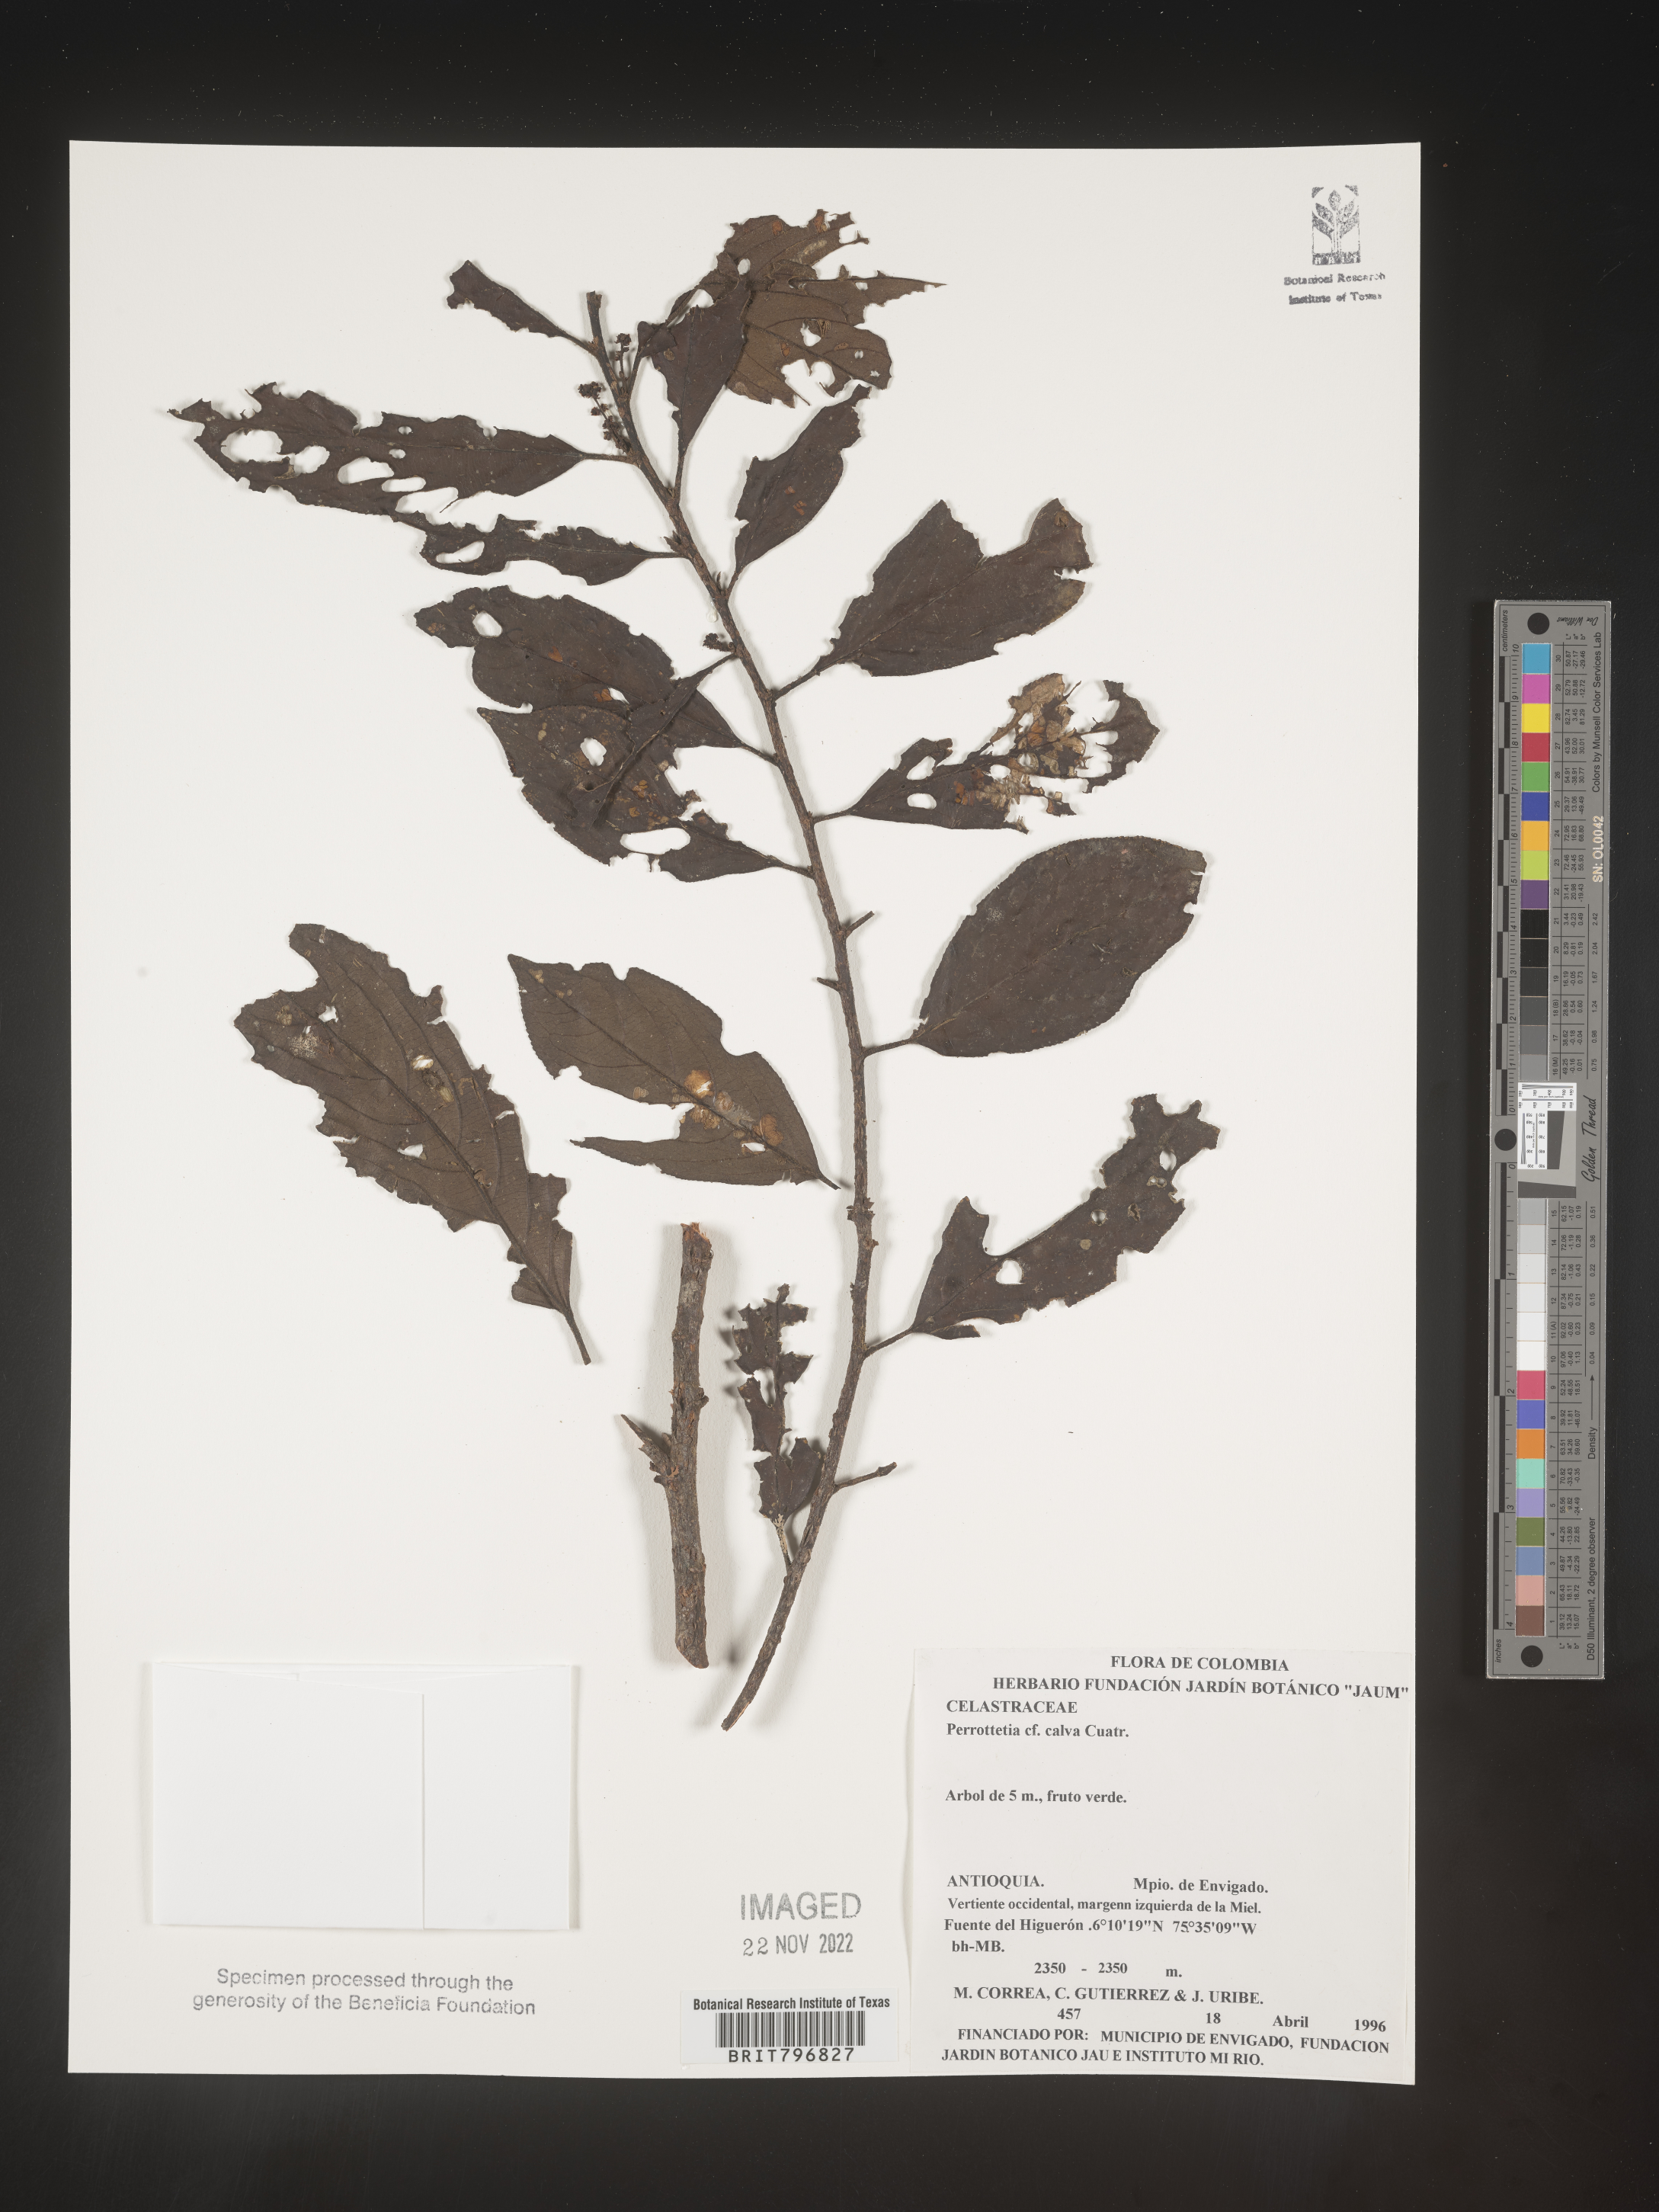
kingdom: Plantae
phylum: Tracheophyta
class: Magnoliopsida
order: Huerteales
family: Dipentodontaceae
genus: Perrottetia
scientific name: Perrottetia
